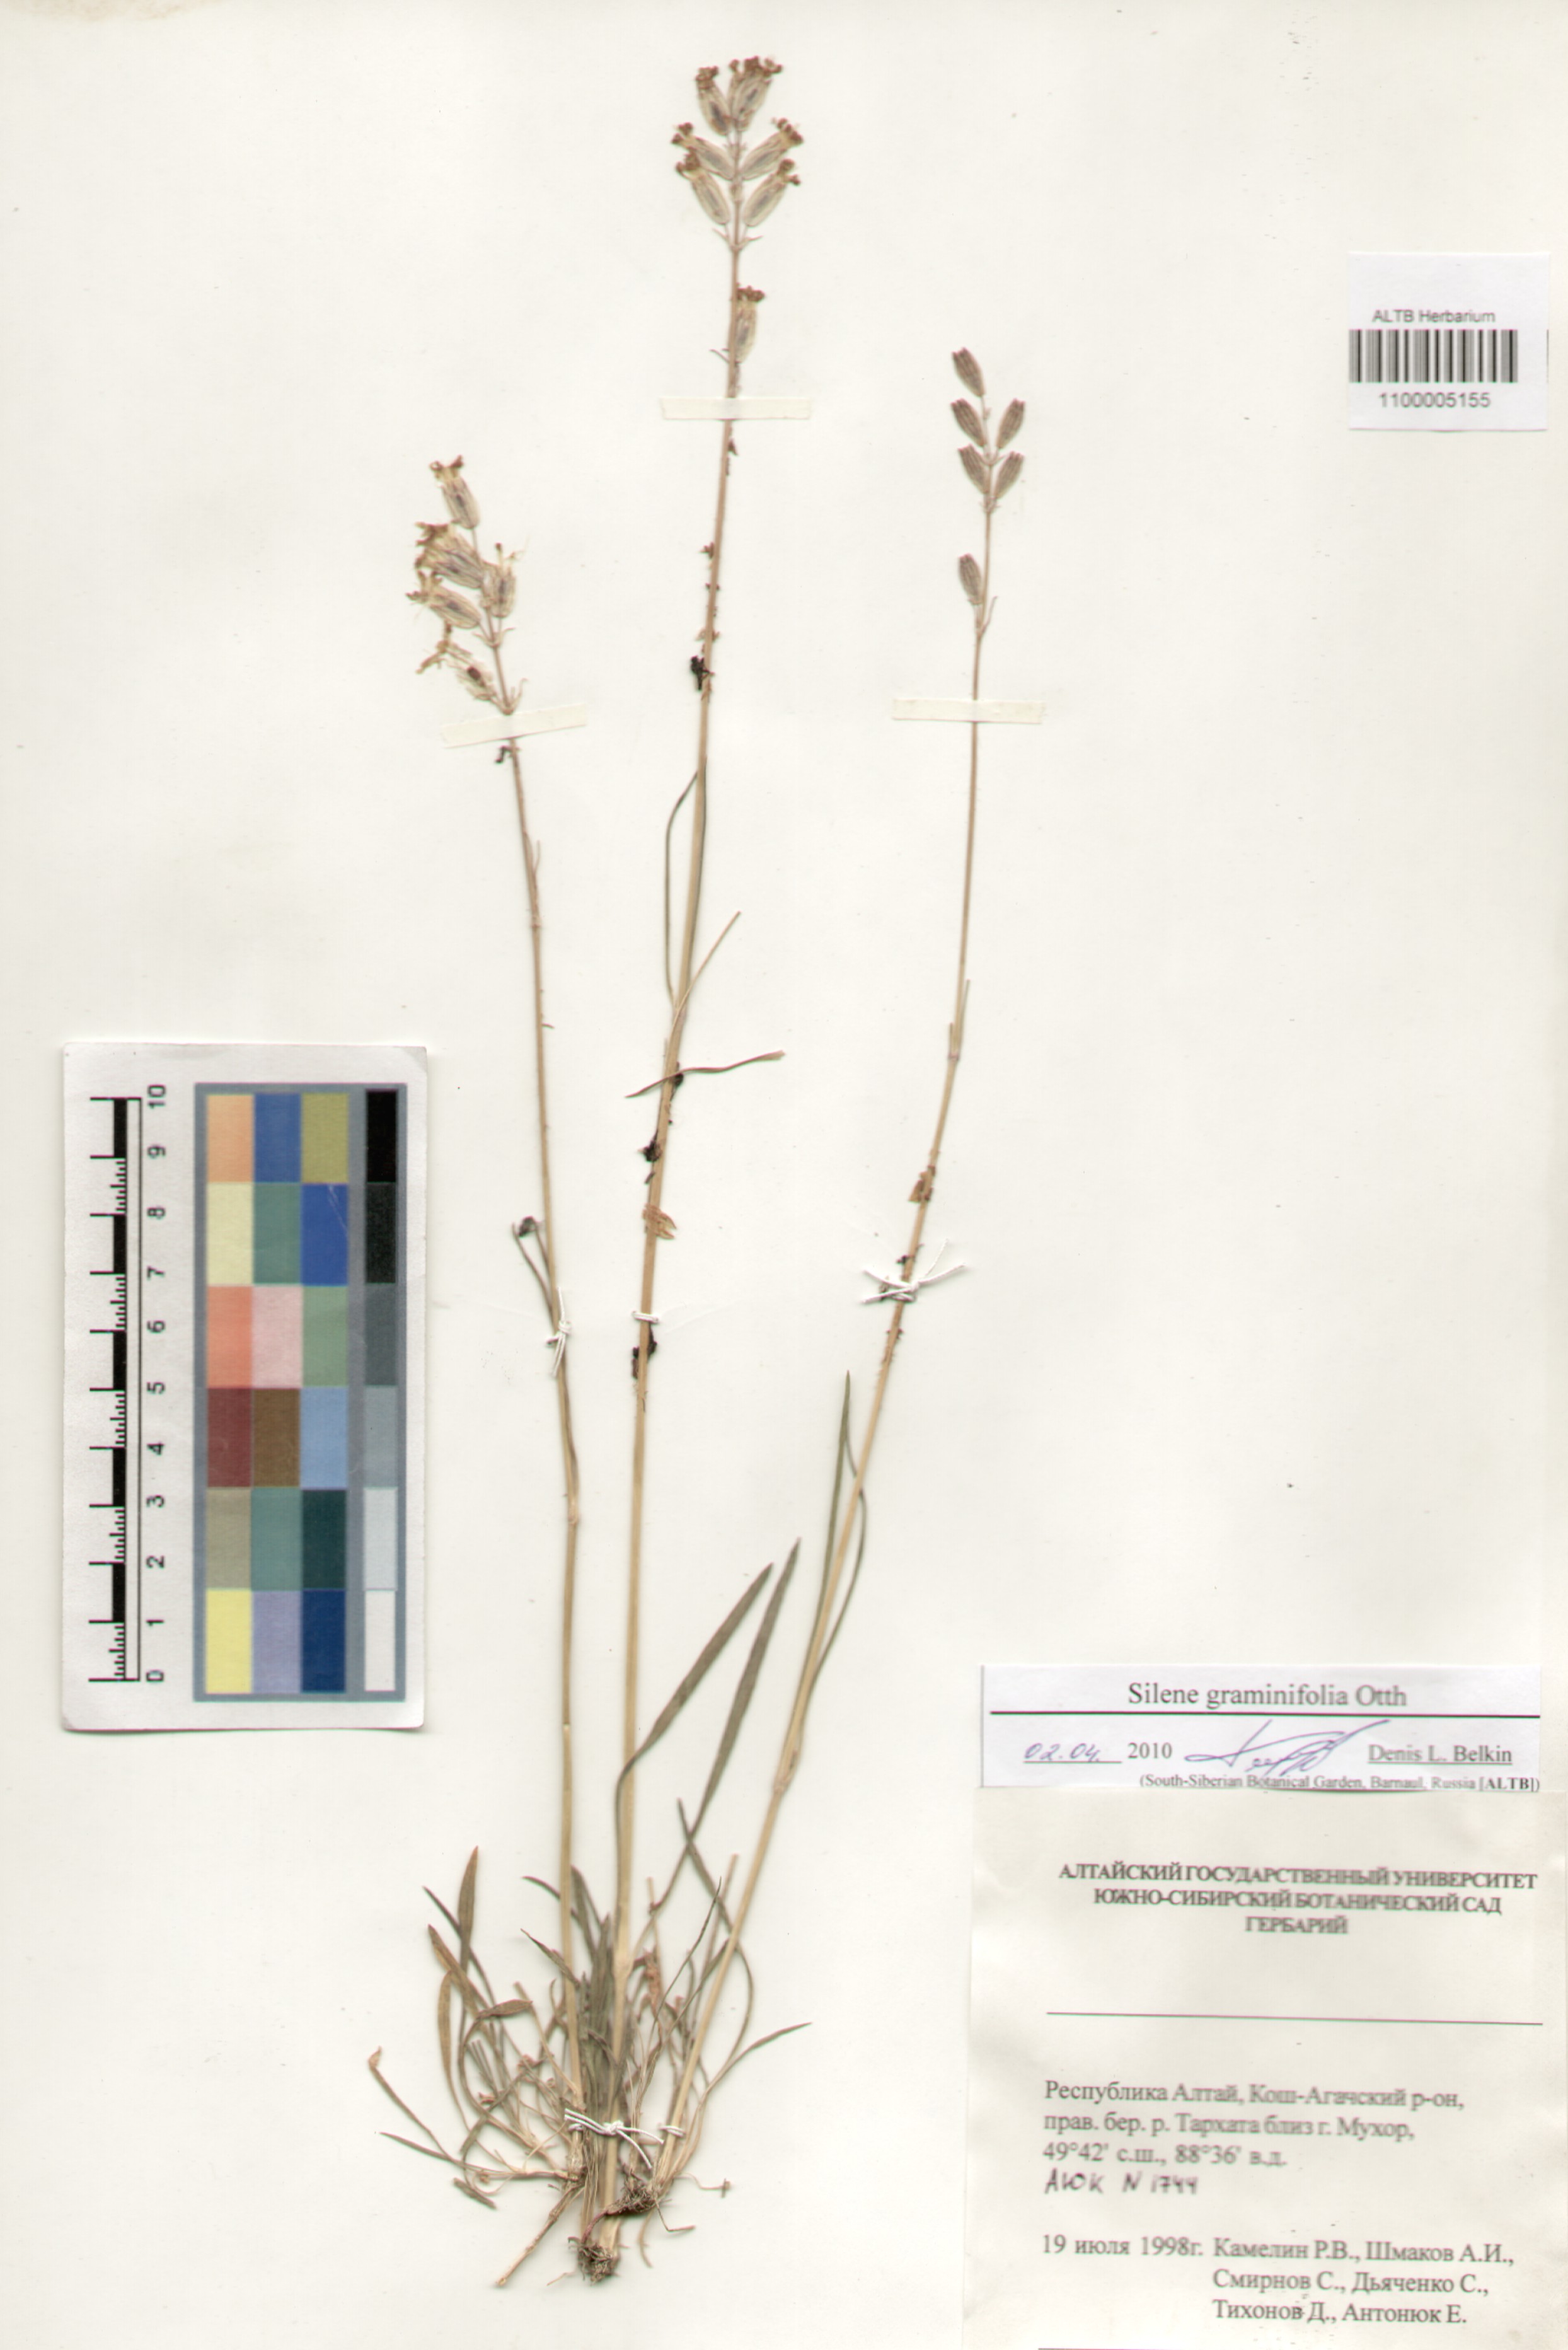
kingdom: Plantae
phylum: Tracheophyta
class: Magnoliopsida
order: Caryophyllales
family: Caryophyllaceae
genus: Silene
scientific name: Silene graminifolia
